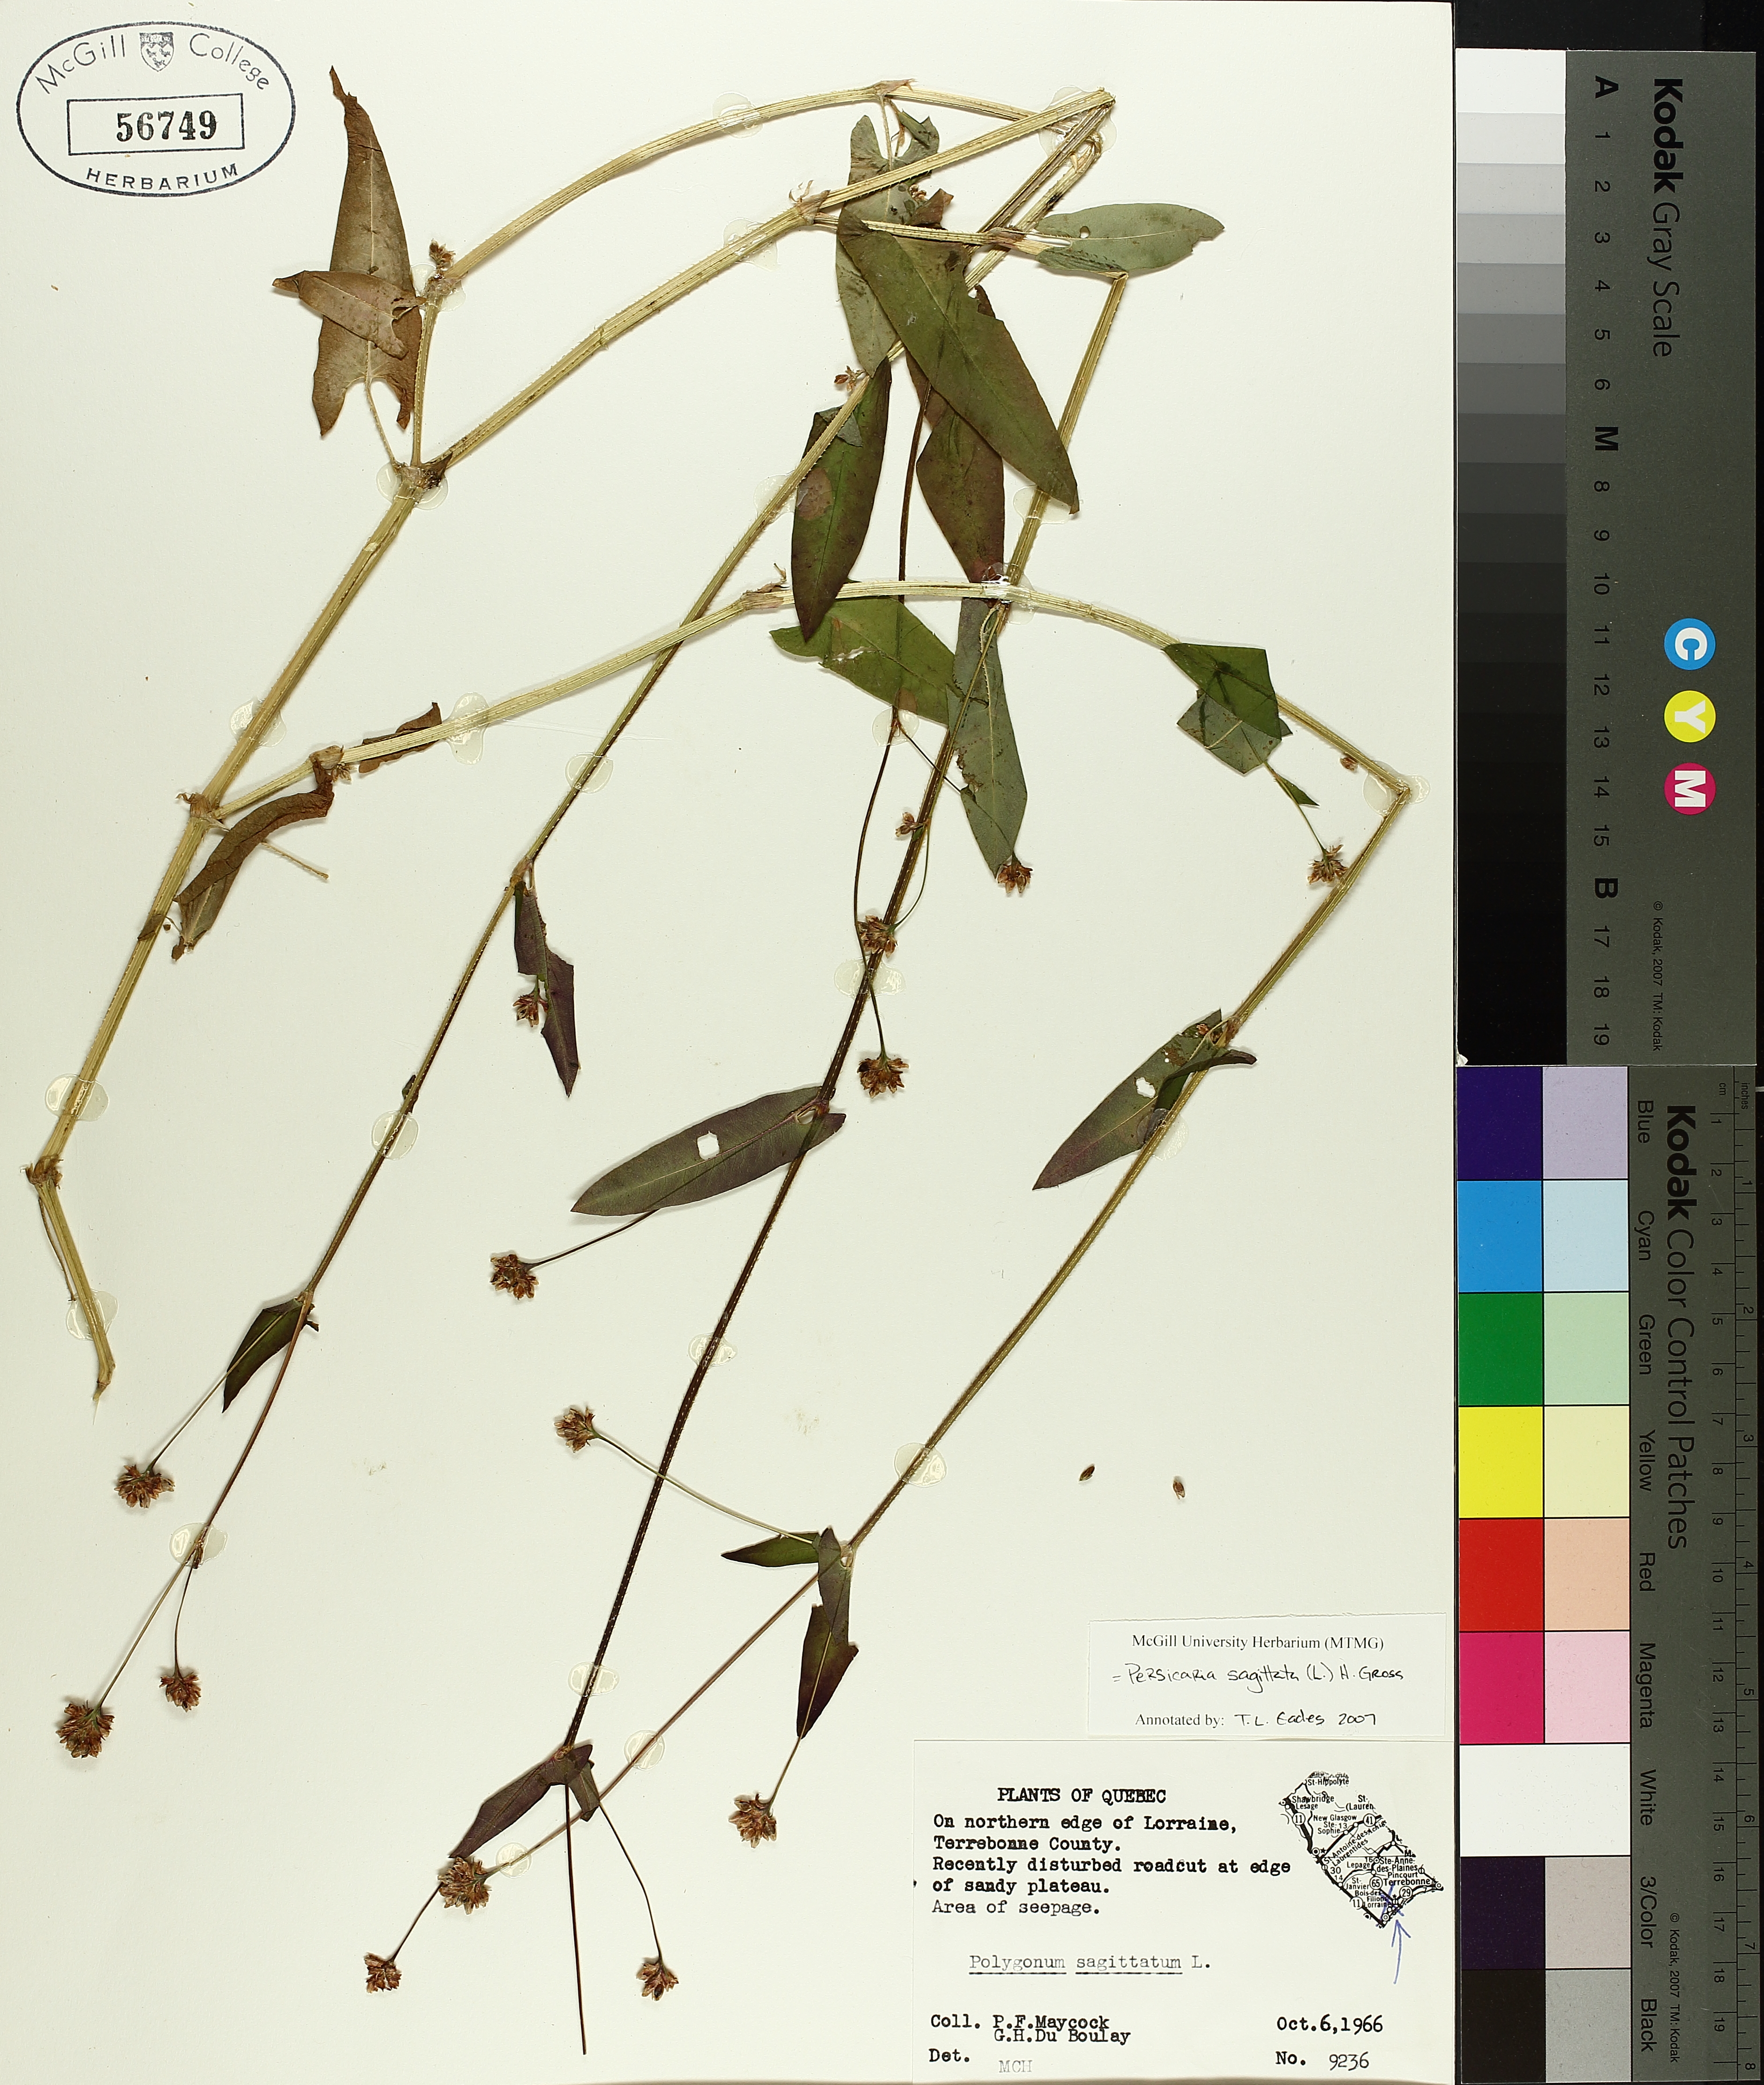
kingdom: Plantae
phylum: Tracheophyta
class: Magnoliopsida
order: Caryophyllales
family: Polygonaceae
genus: Persicaria
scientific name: Persicaria sagittata
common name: American tearthumb
